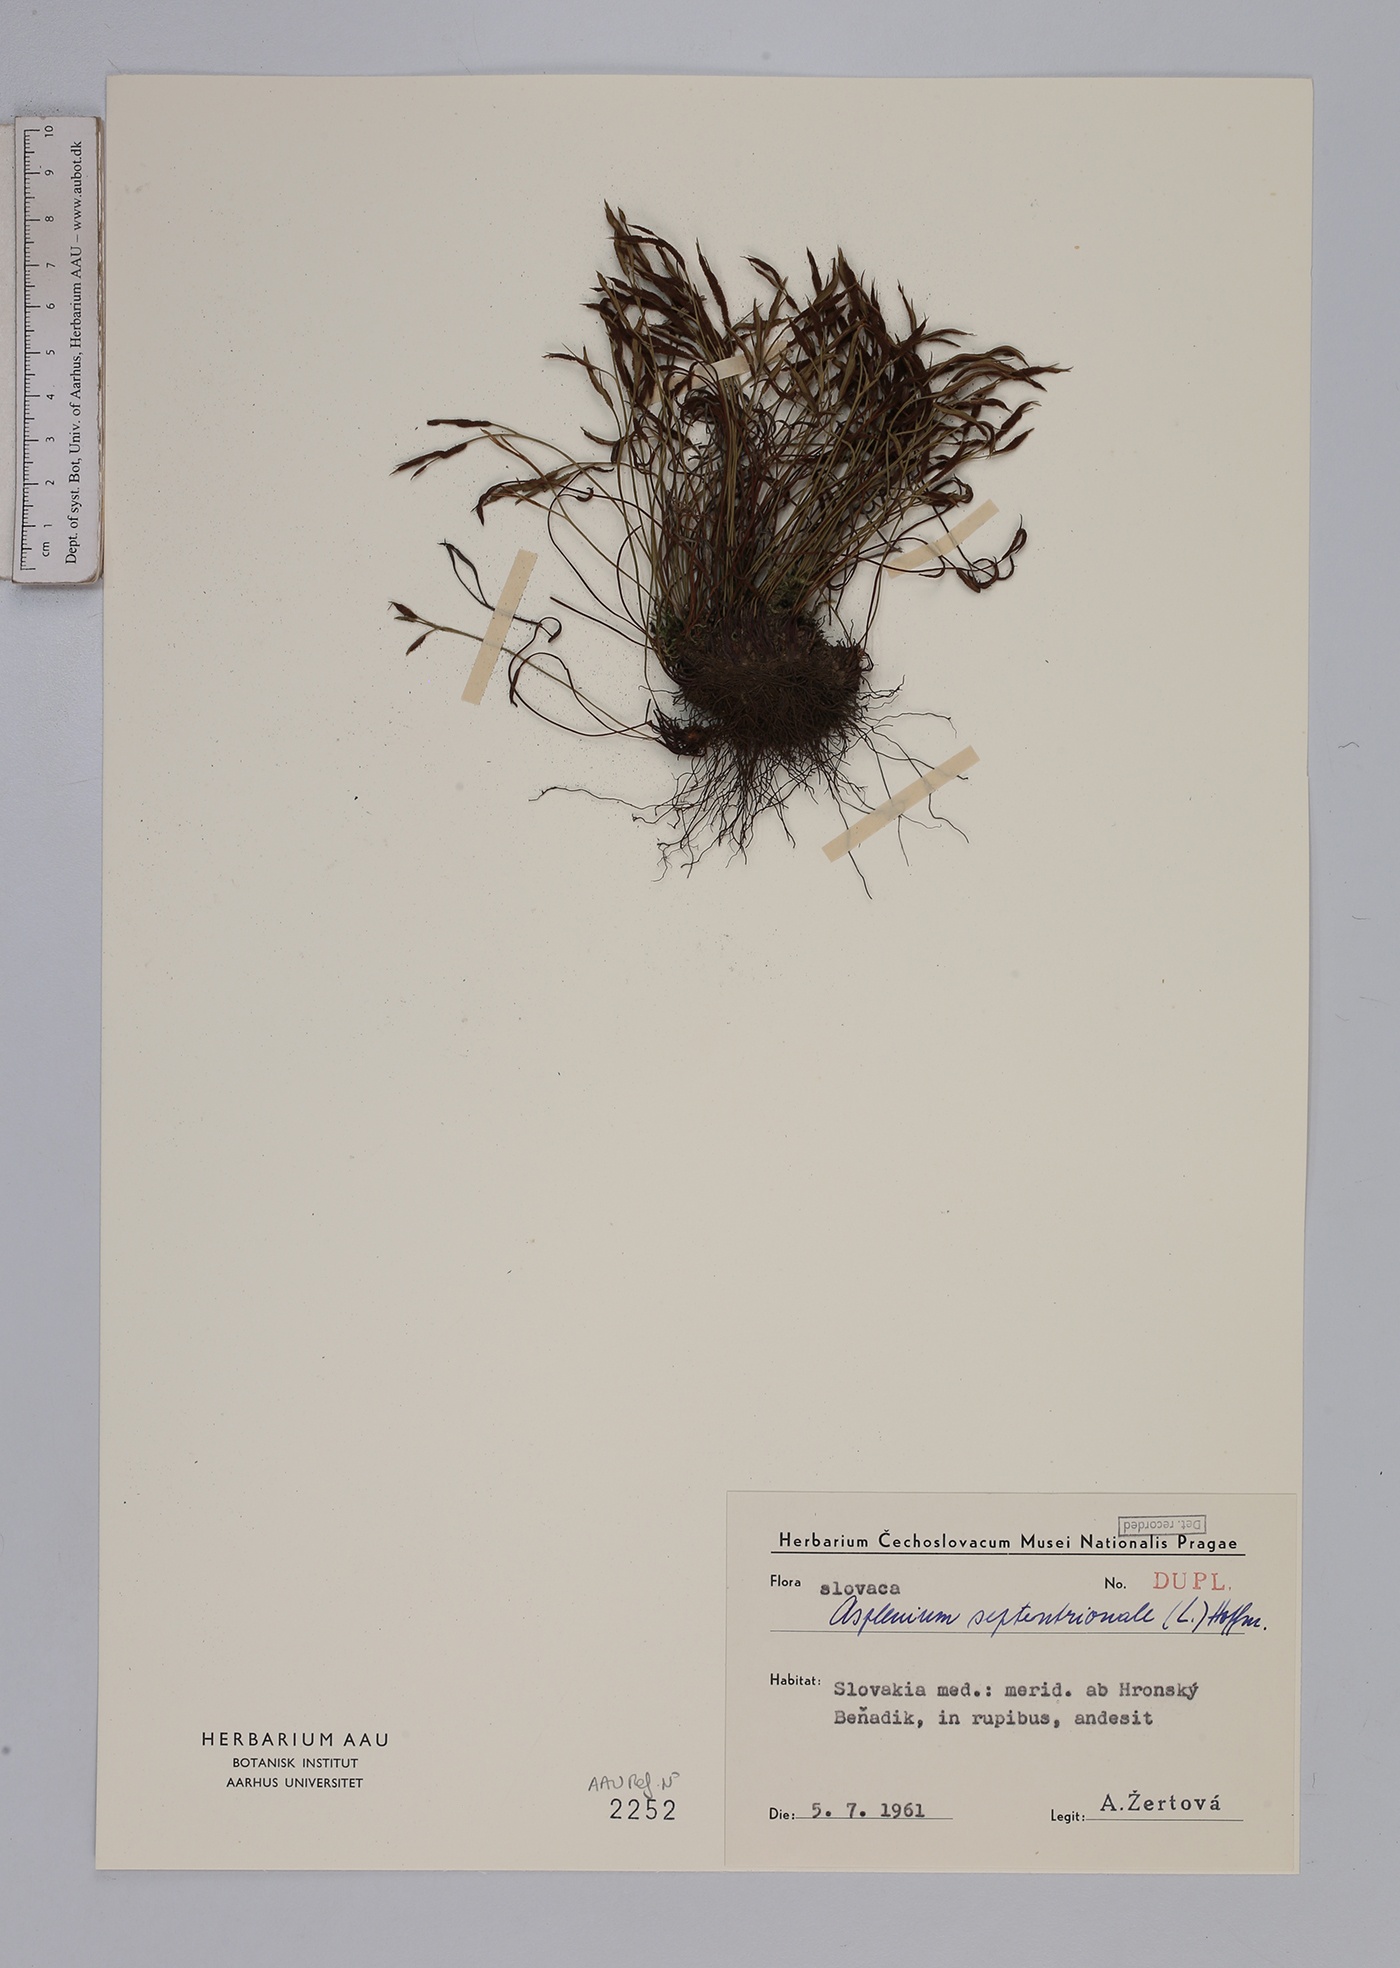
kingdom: Plantae
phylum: Tracheophyta
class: Polypodiopsida
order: Polypodiales
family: Aspleniaceae
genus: Asplenium
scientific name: Asplenium septentrionale
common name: Forked spleenwort
